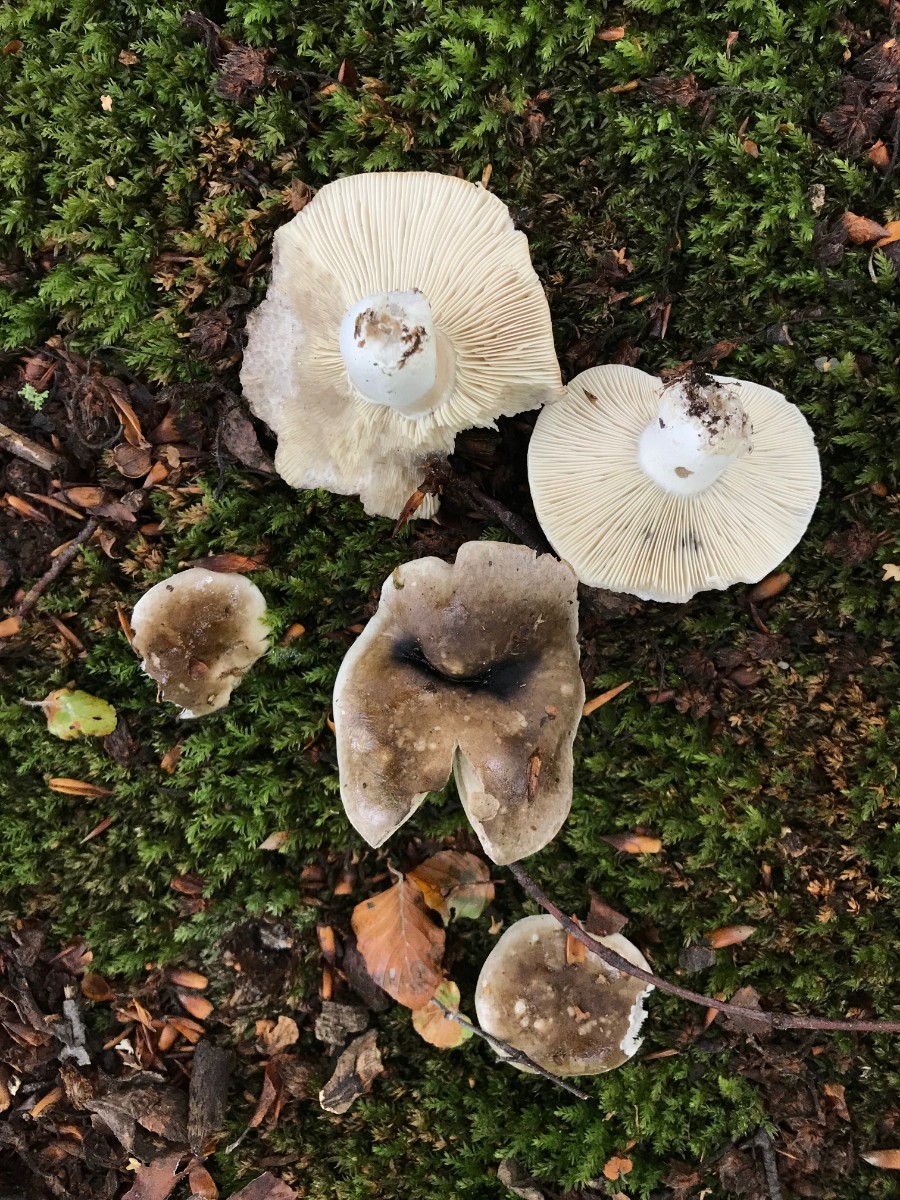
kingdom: Fungi
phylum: Basidiomycota
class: Agaricomycetes
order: Russulales
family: Russulaceae
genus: Russula
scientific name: Russula densifolia
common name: tætbladet skørhat
